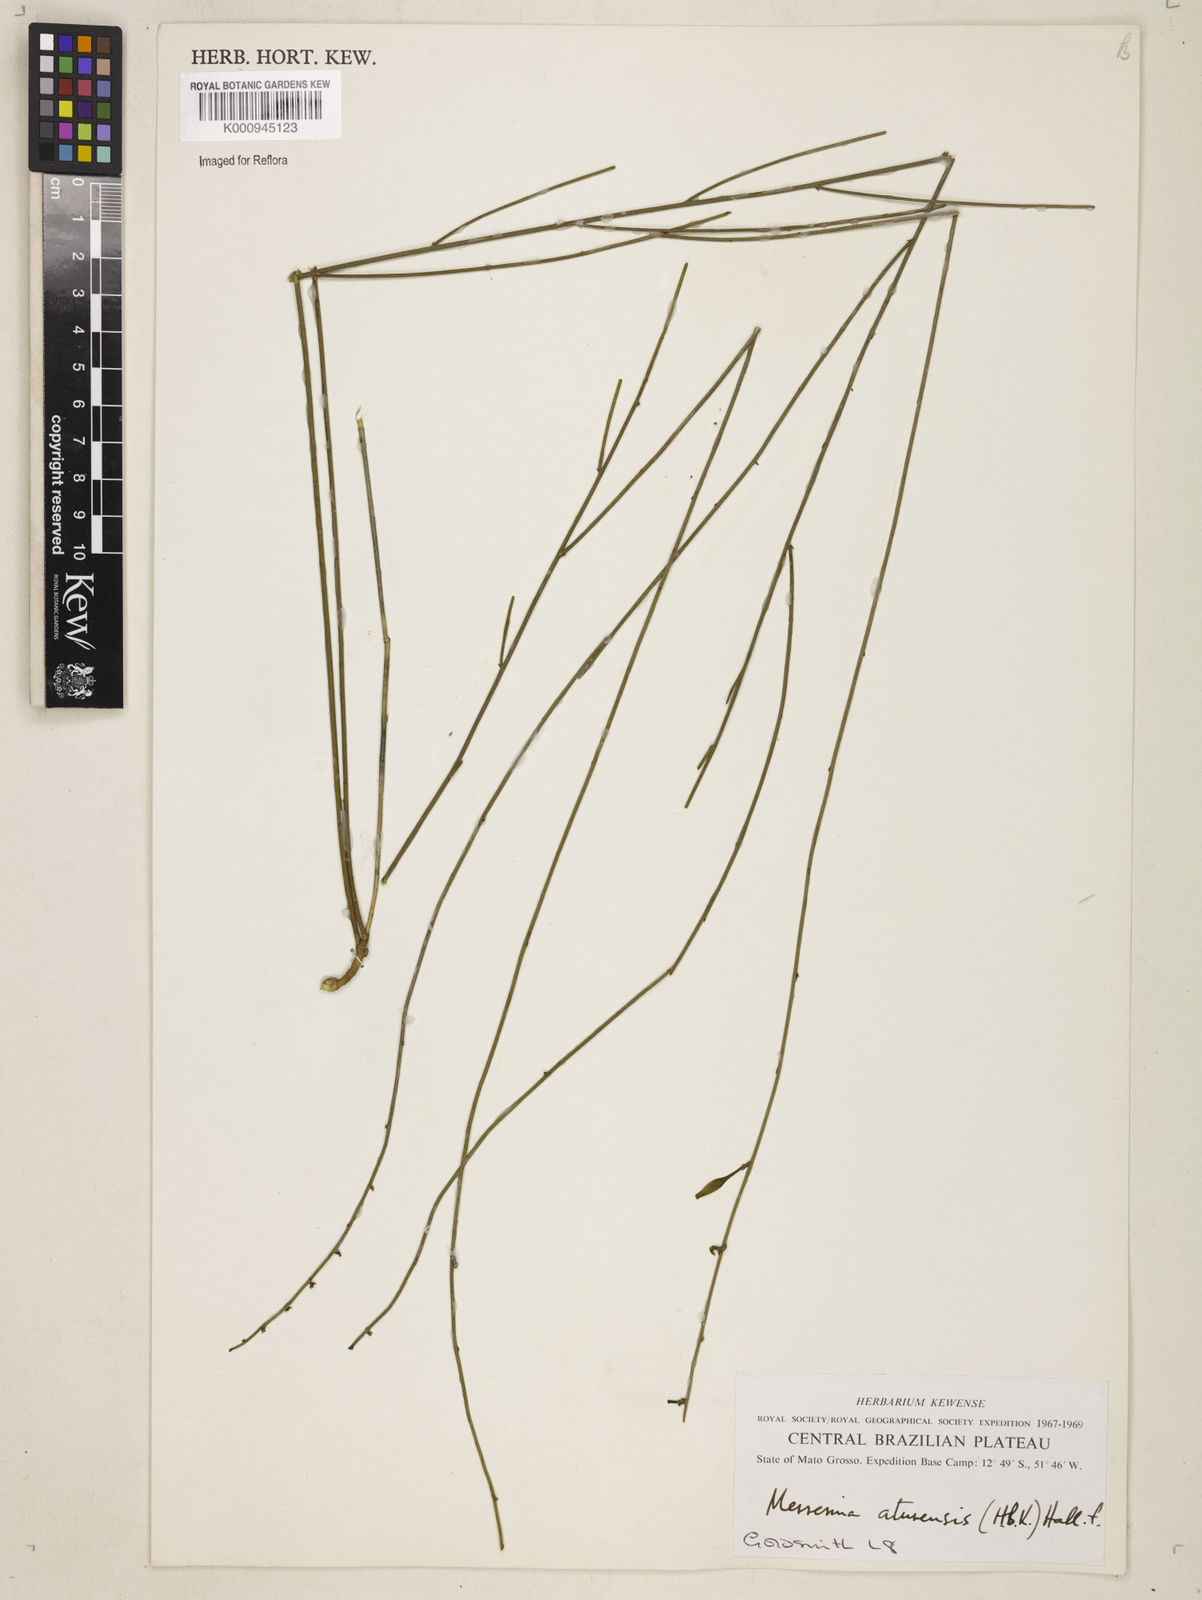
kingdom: Plantae
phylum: Tracheophyta
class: Magnoliopsida
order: Solanales
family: Convolvulaceae
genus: Distimake
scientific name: Distimake aturensis
